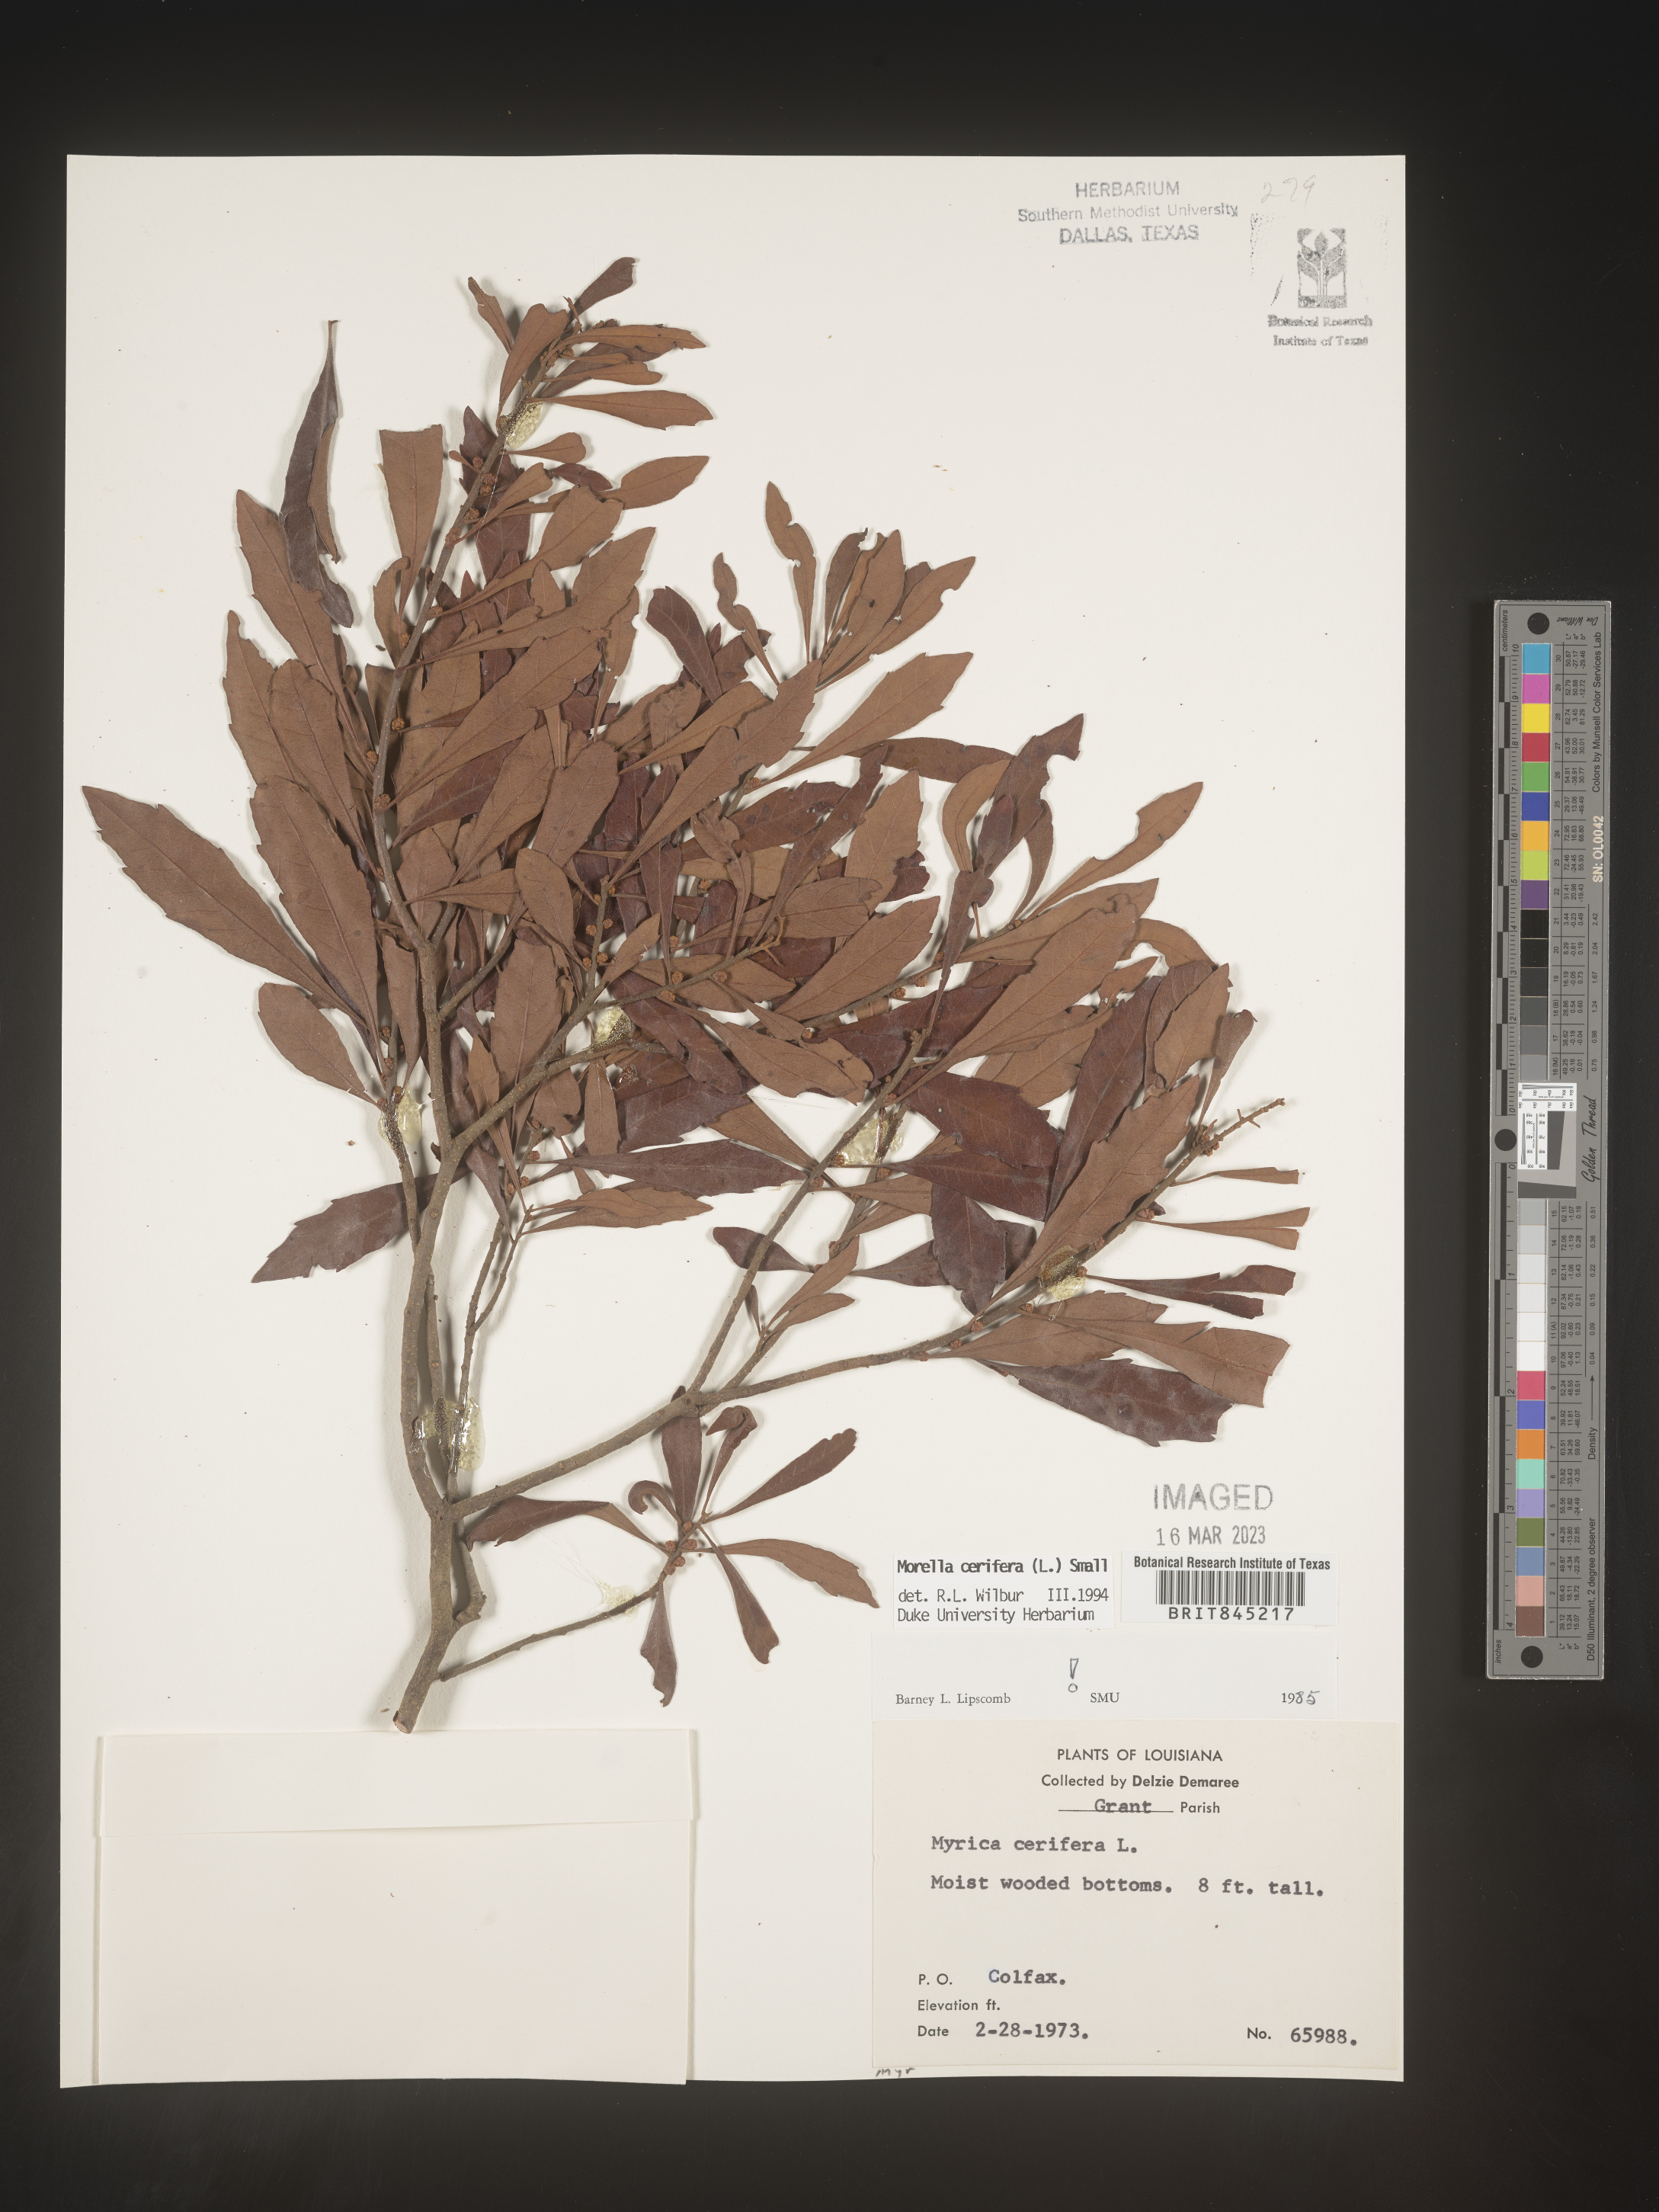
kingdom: Plantae
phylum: Tracheophyta
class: Magnoliopsida
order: Fagales
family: Myricaceae
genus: Morella
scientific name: Morella cerifera
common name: Wax myrtle
